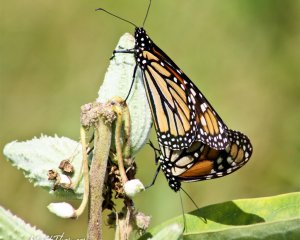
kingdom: Animalia
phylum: Arthropoda
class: Insecta
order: Lepidoptera
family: Nymphalidae
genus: Danaus
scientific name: Danaus plexippus
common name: Monarch
